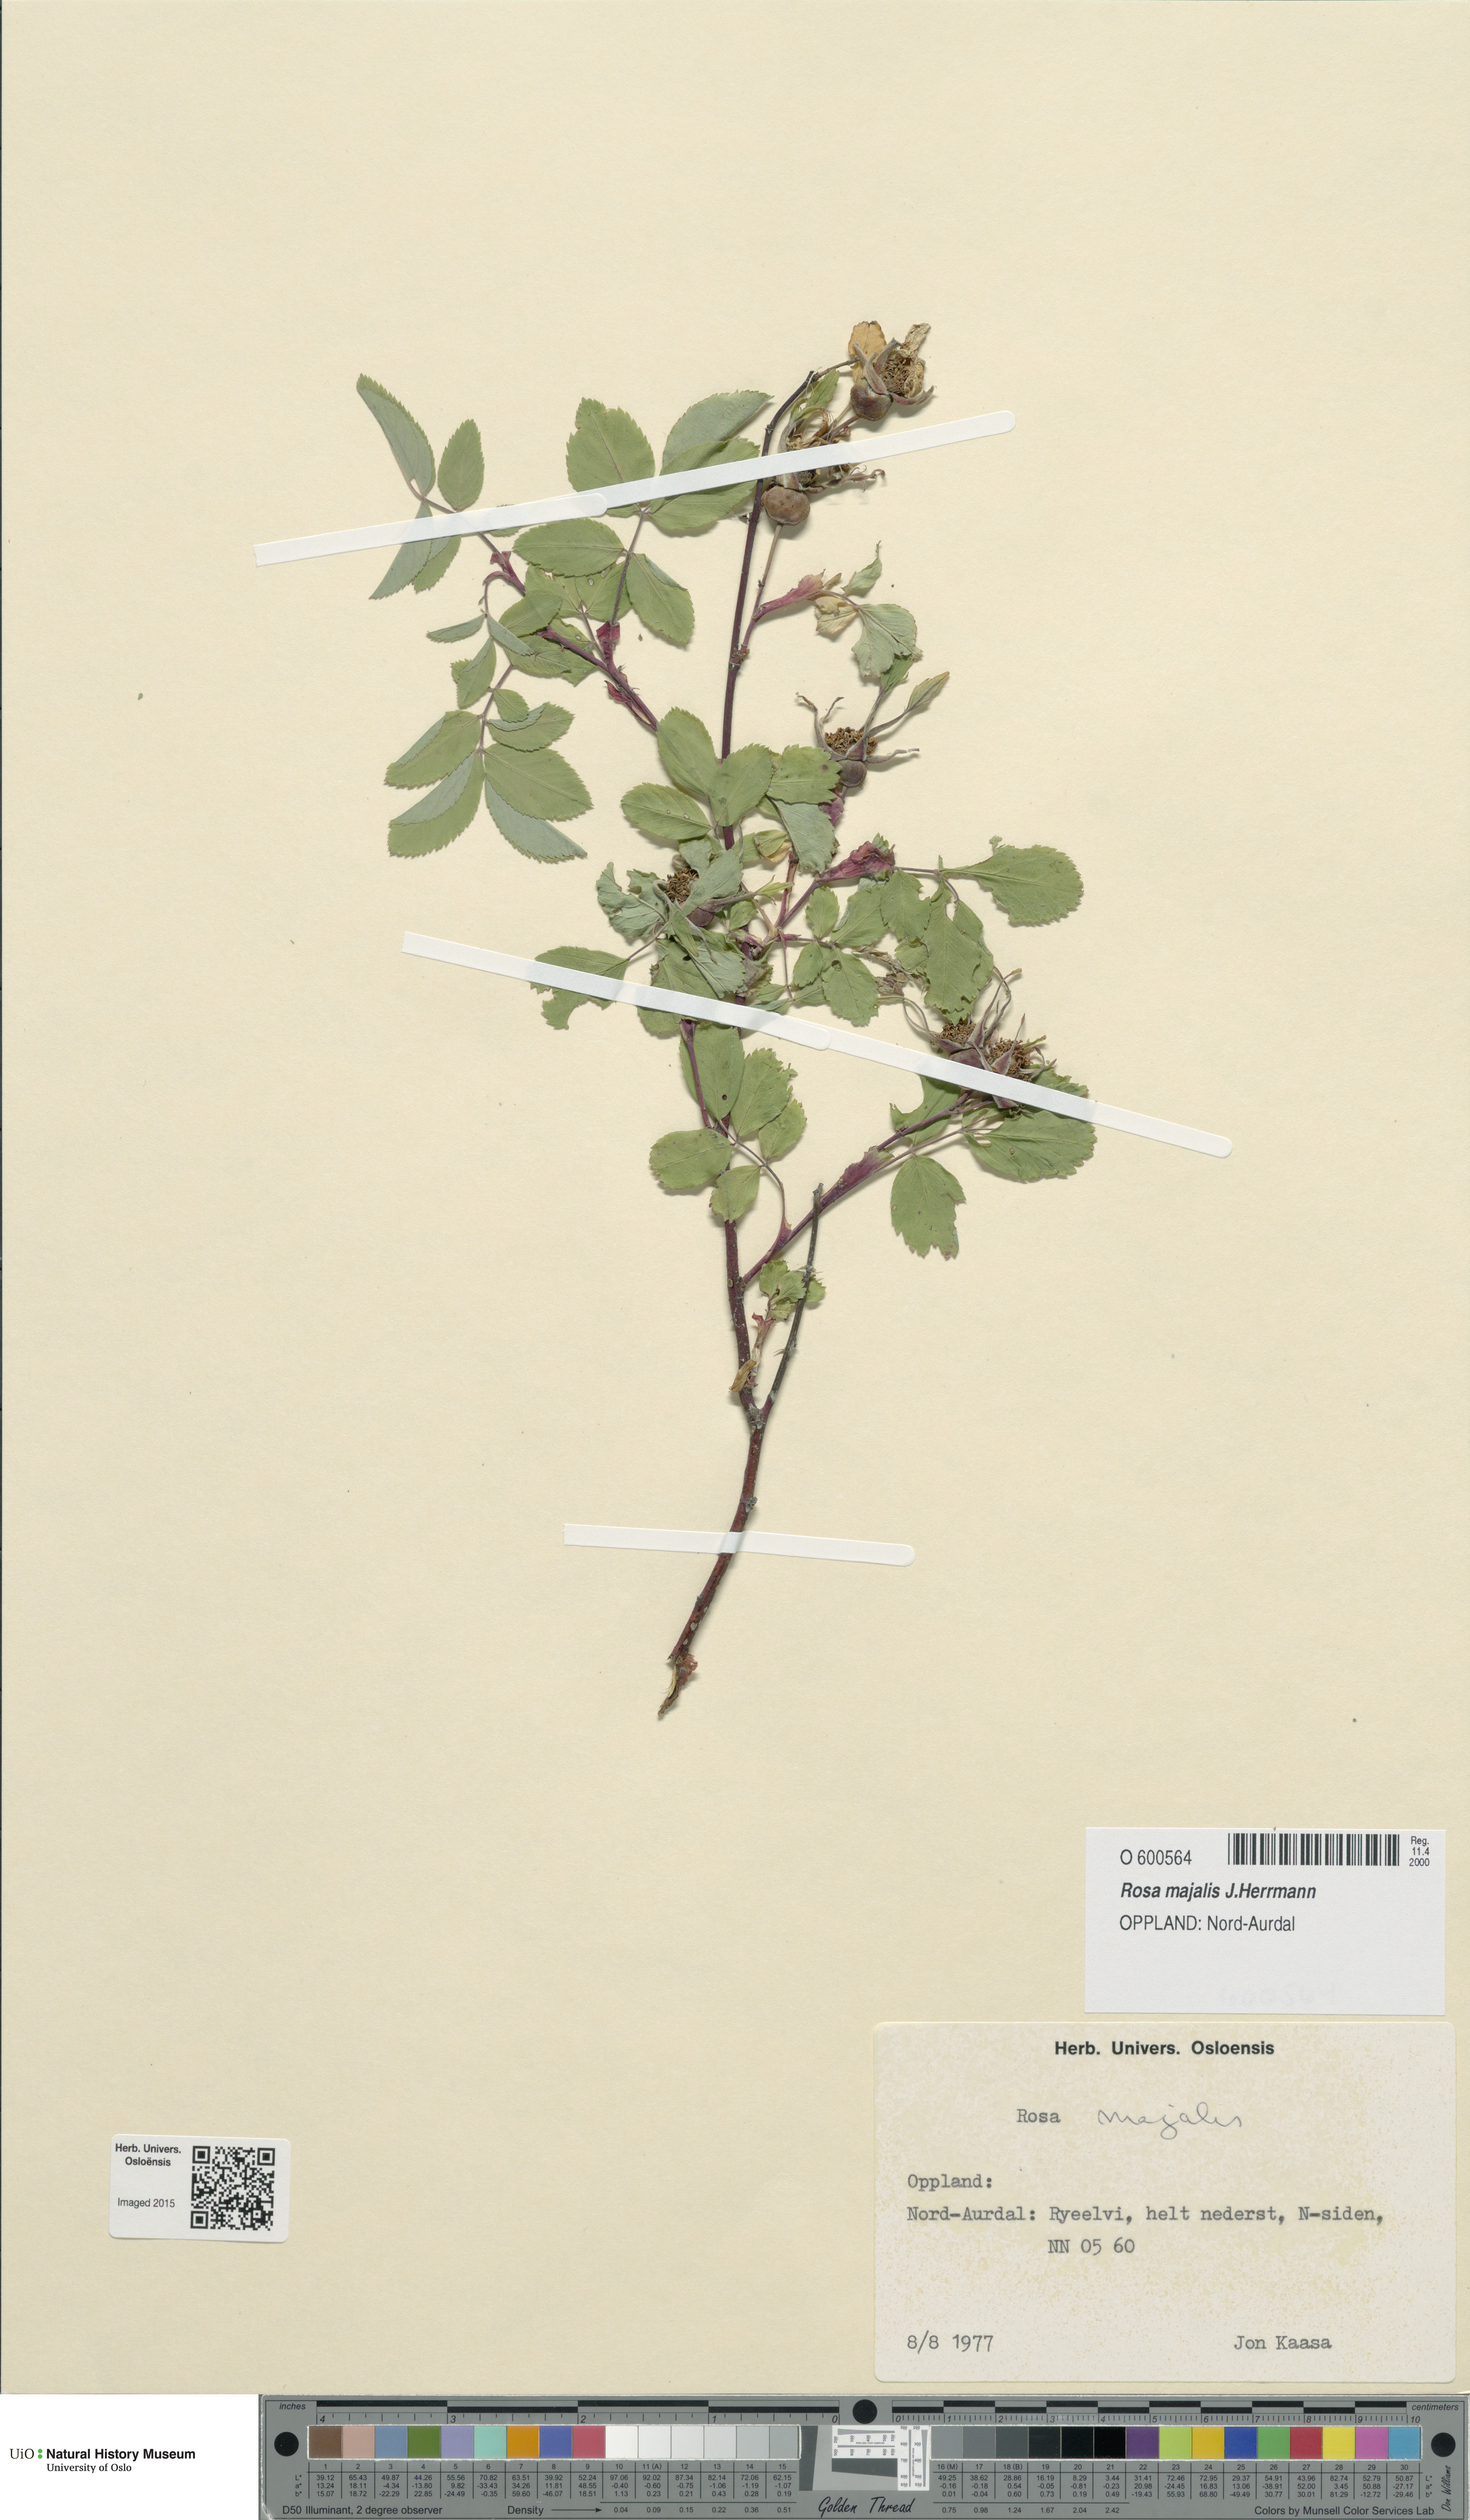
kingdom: Plantae
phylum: Tracheophyta
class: Magnoliopsida
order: Rosales
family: Rosaceae
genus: Rosa
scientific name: Rosa majalis
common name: Cinnamon rose
